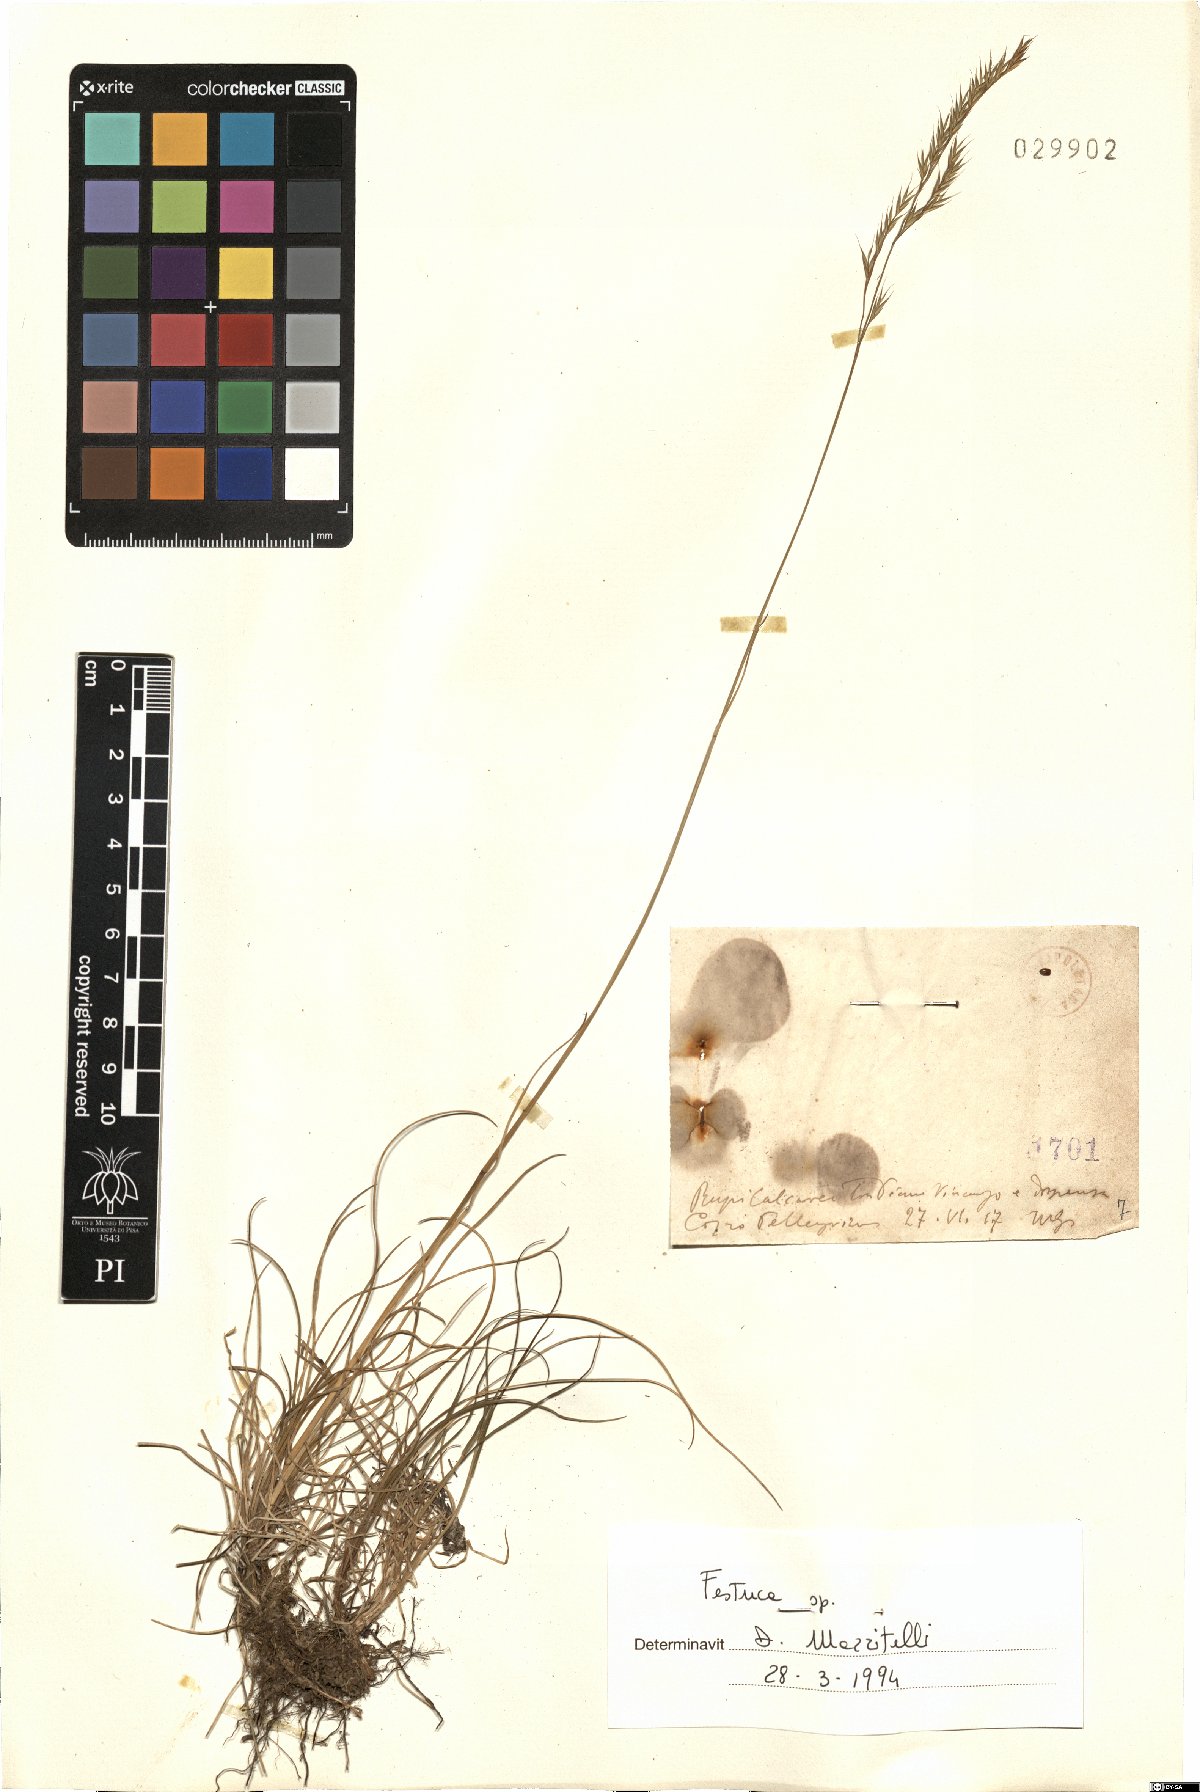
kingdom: Plantae
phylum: Tracheophyta
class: Liliopsida
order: Poales
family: Poaceae
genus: Festuca
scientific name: Festuca
